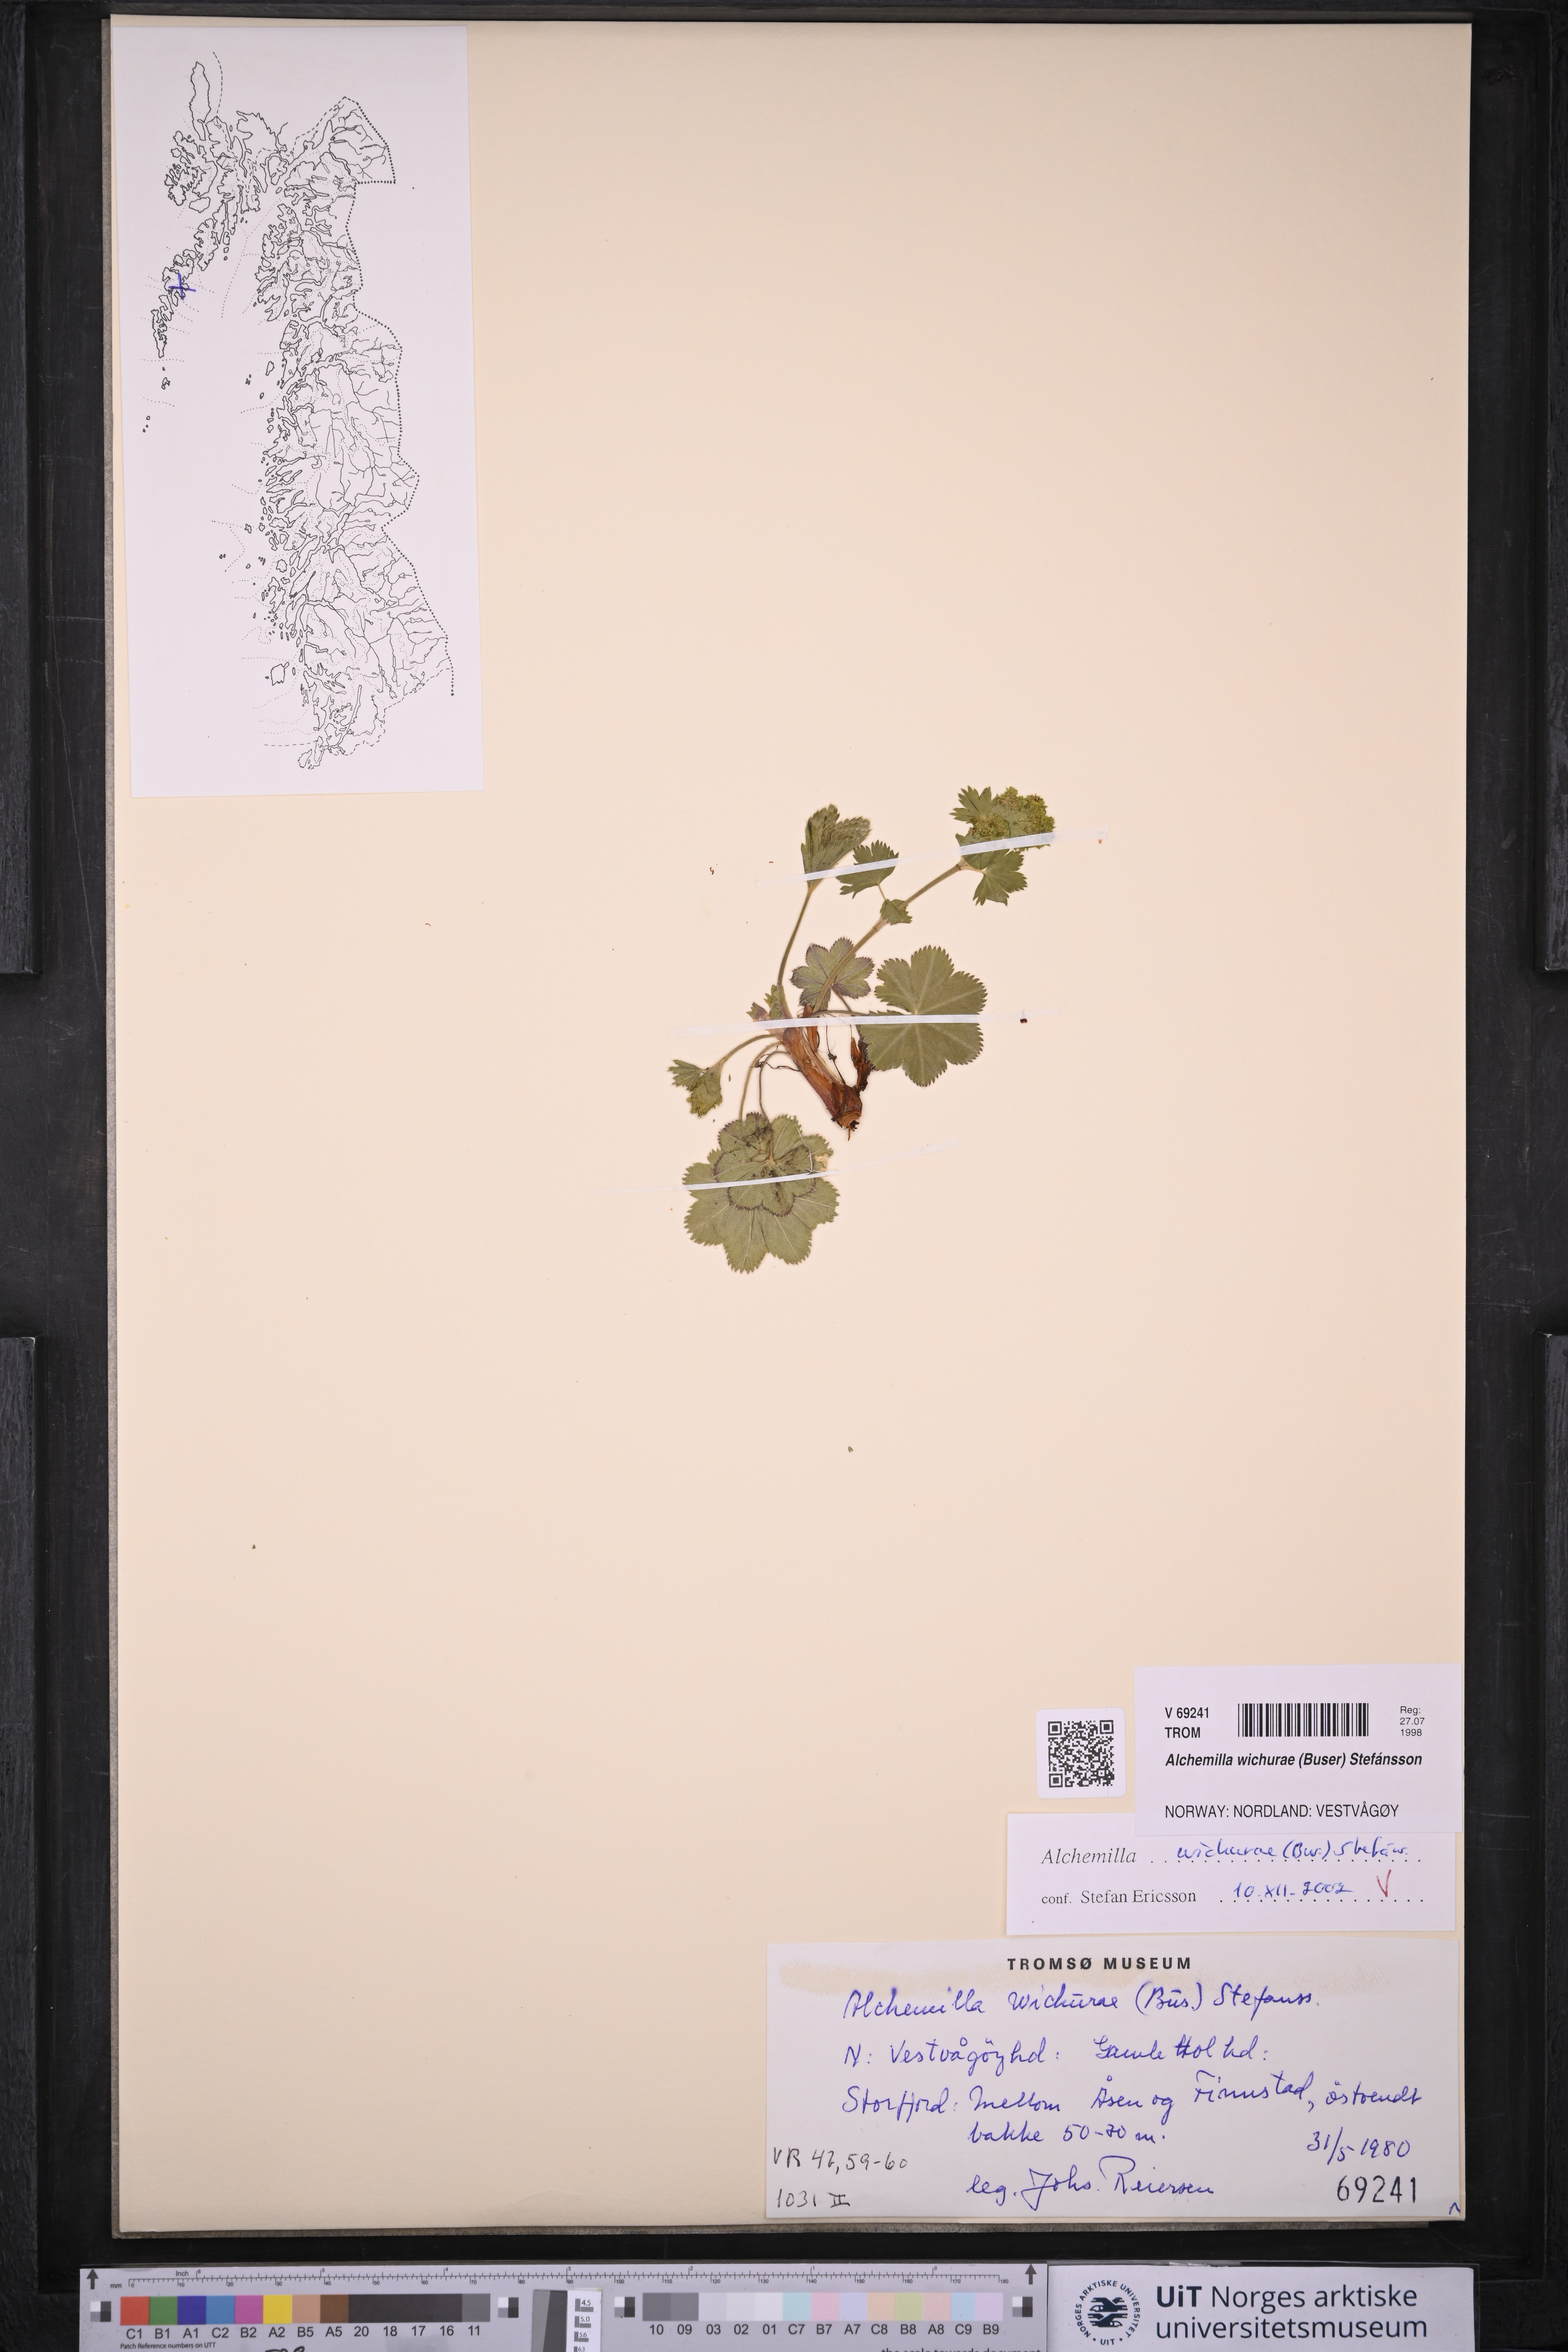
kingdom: Plantae
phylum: Tracheophyta
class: Magnoliopsida
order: Rosales
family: Rosaceae
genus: Alchemilla
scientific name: Alchemilla wichurae
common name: Rock lady's mantle
